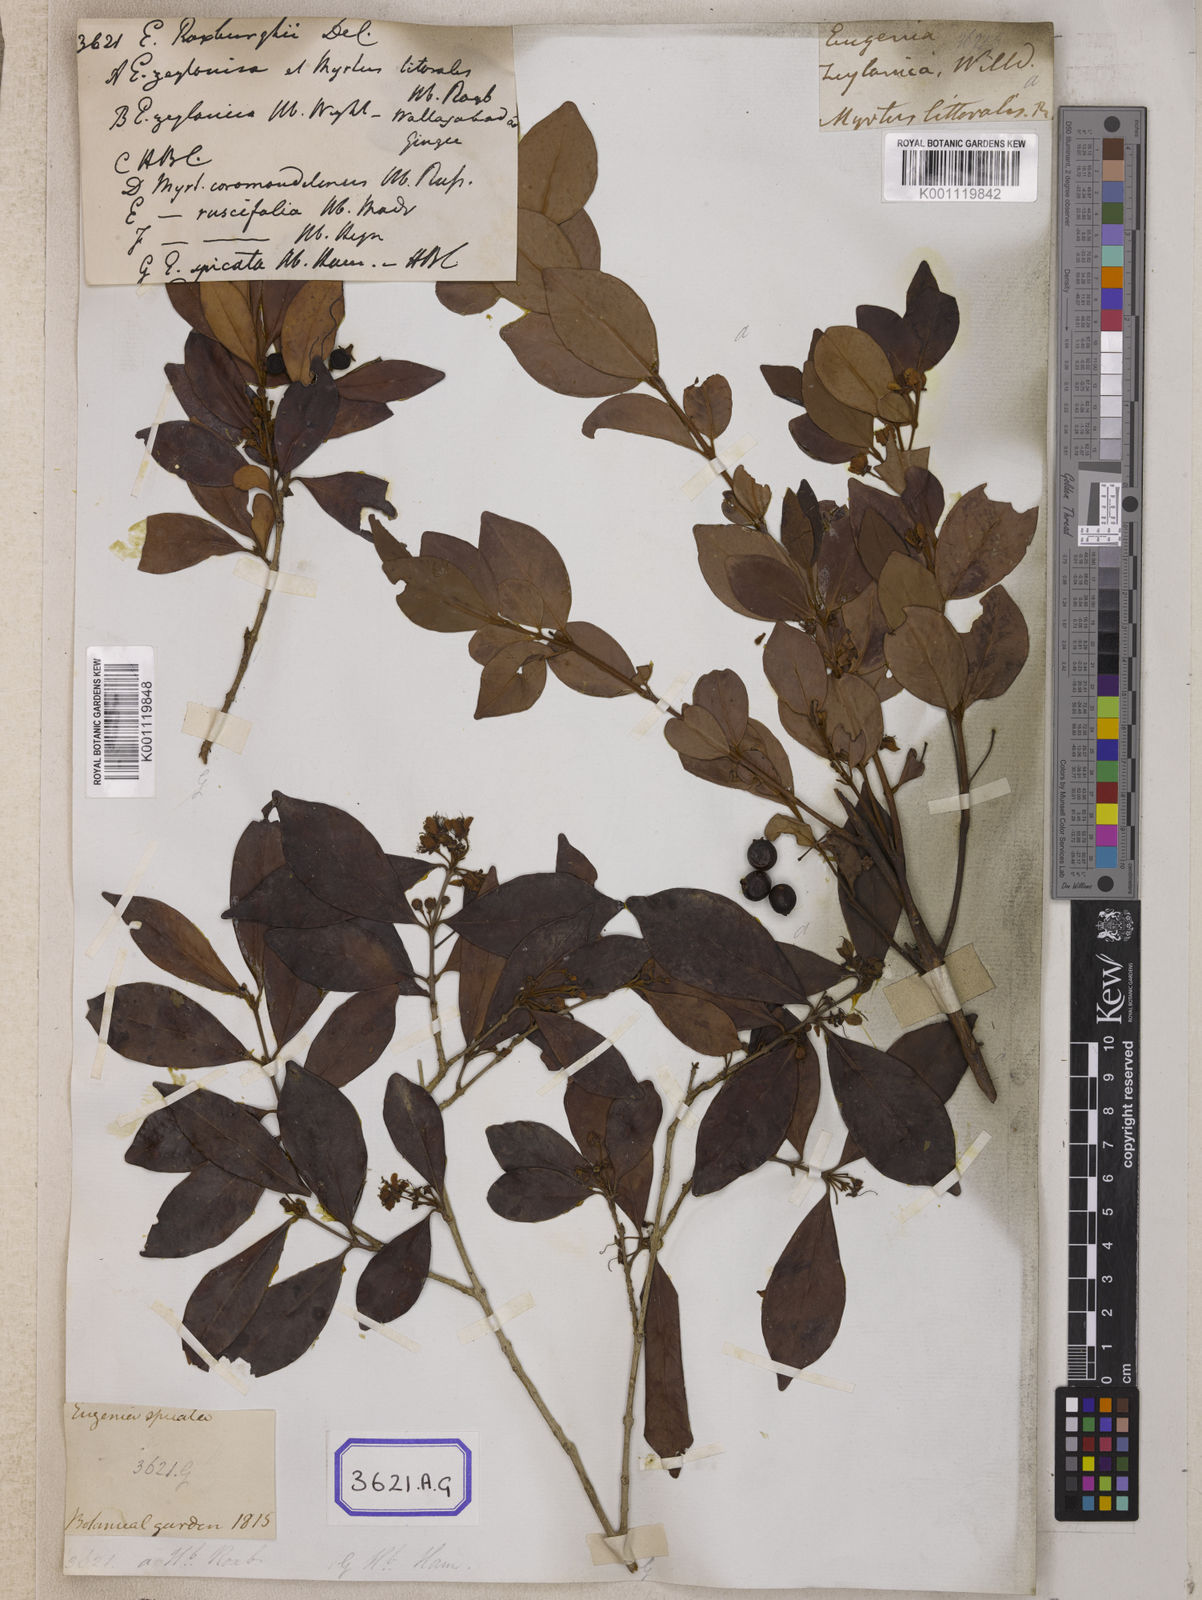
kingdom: Plantae
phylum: Tracheophyta
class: Magnoliopsida
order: Myrtales
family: Myrtaceae
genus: Eugenia
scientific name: Eugenia roxburghii
